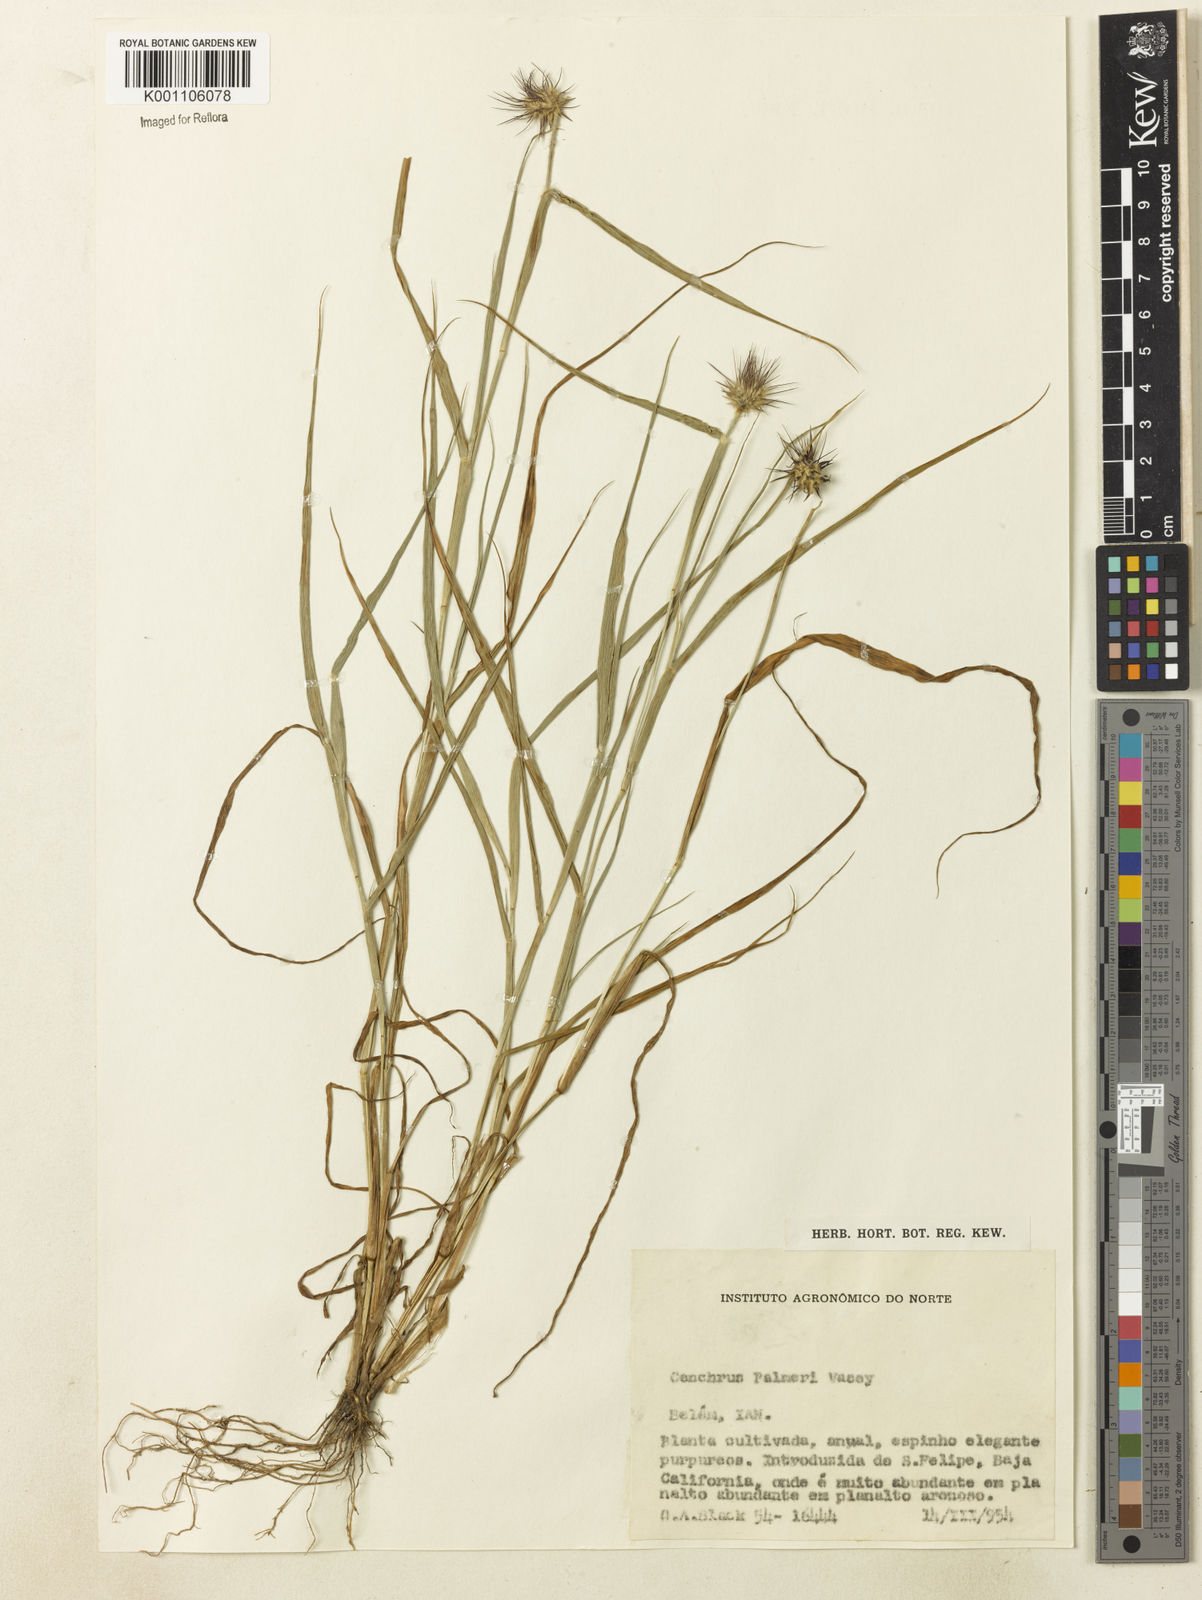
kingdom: Plantae
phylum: Tracheophyta
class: Liliopsida
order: Poales
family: Poaceae
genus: Cenchrus
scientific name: Cenchrus palmeri
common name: Giant sandbur
